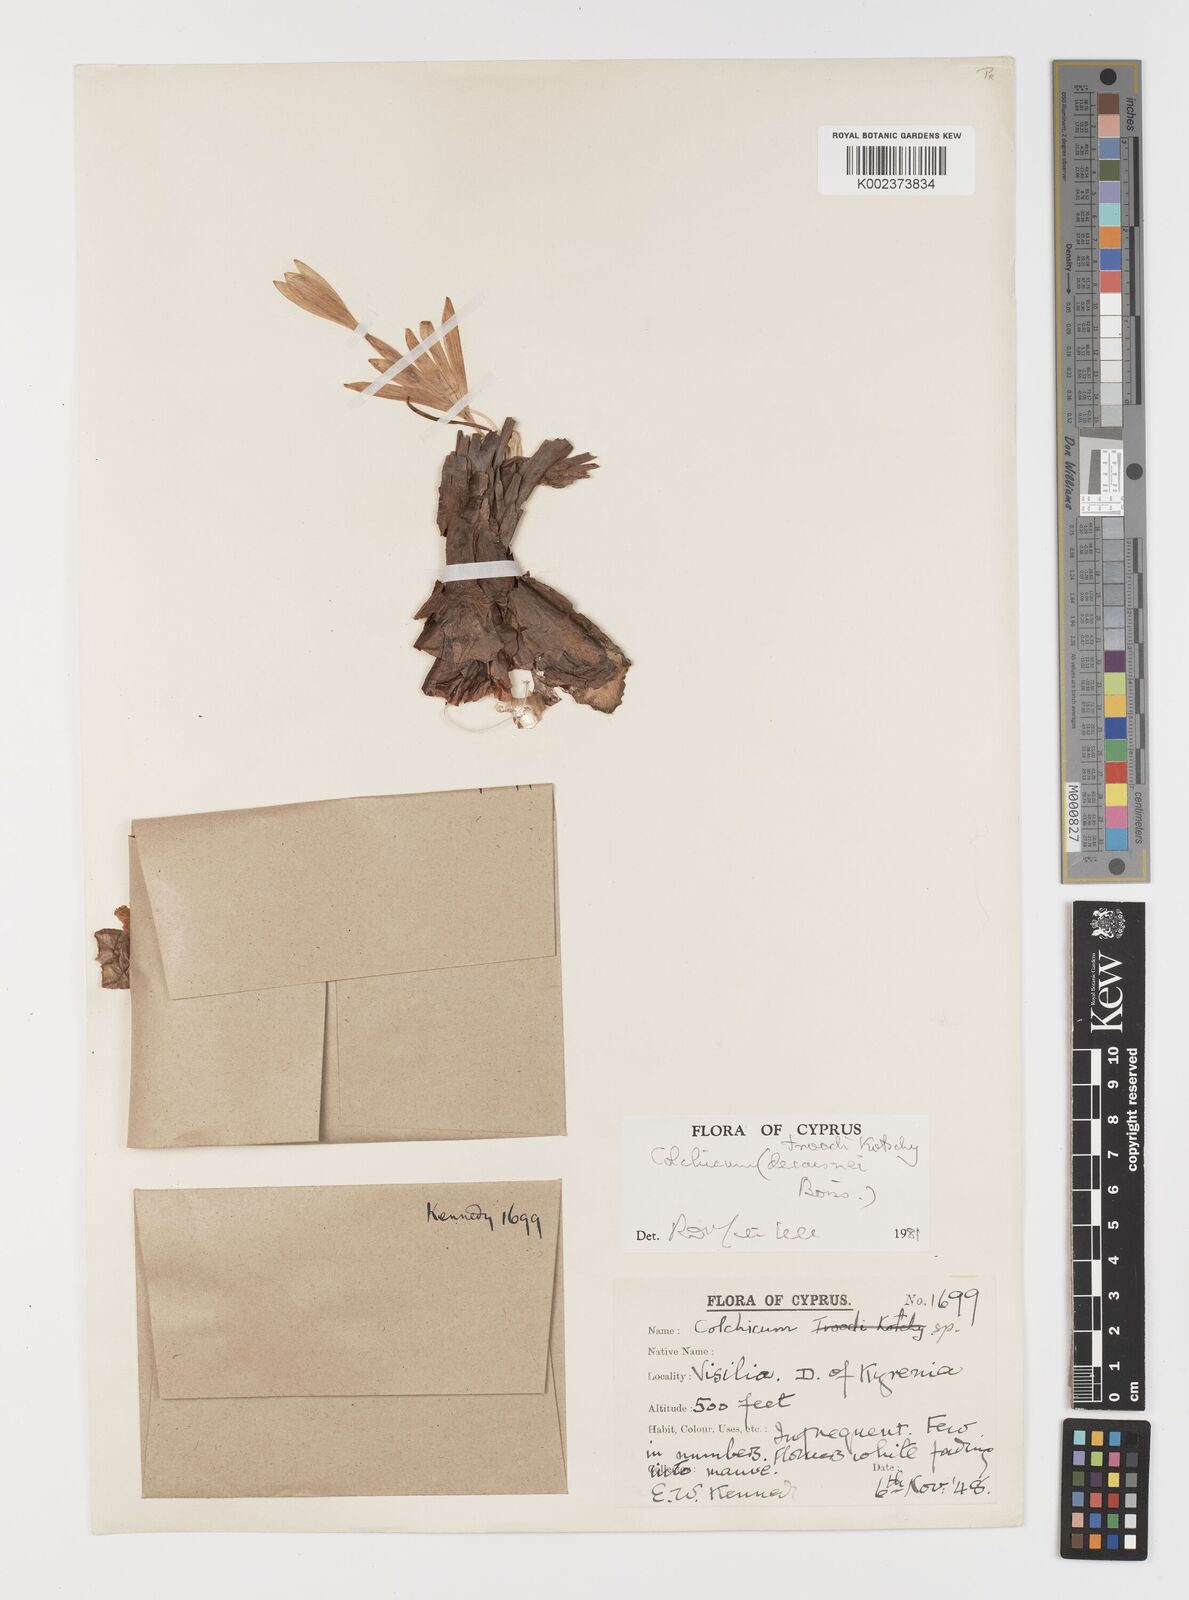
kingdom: Plantae
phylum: Tracheophyta
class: Liliopsida
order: Liliales
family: Colchicaceae
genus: Colchicum
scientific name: Colchicum troodi
